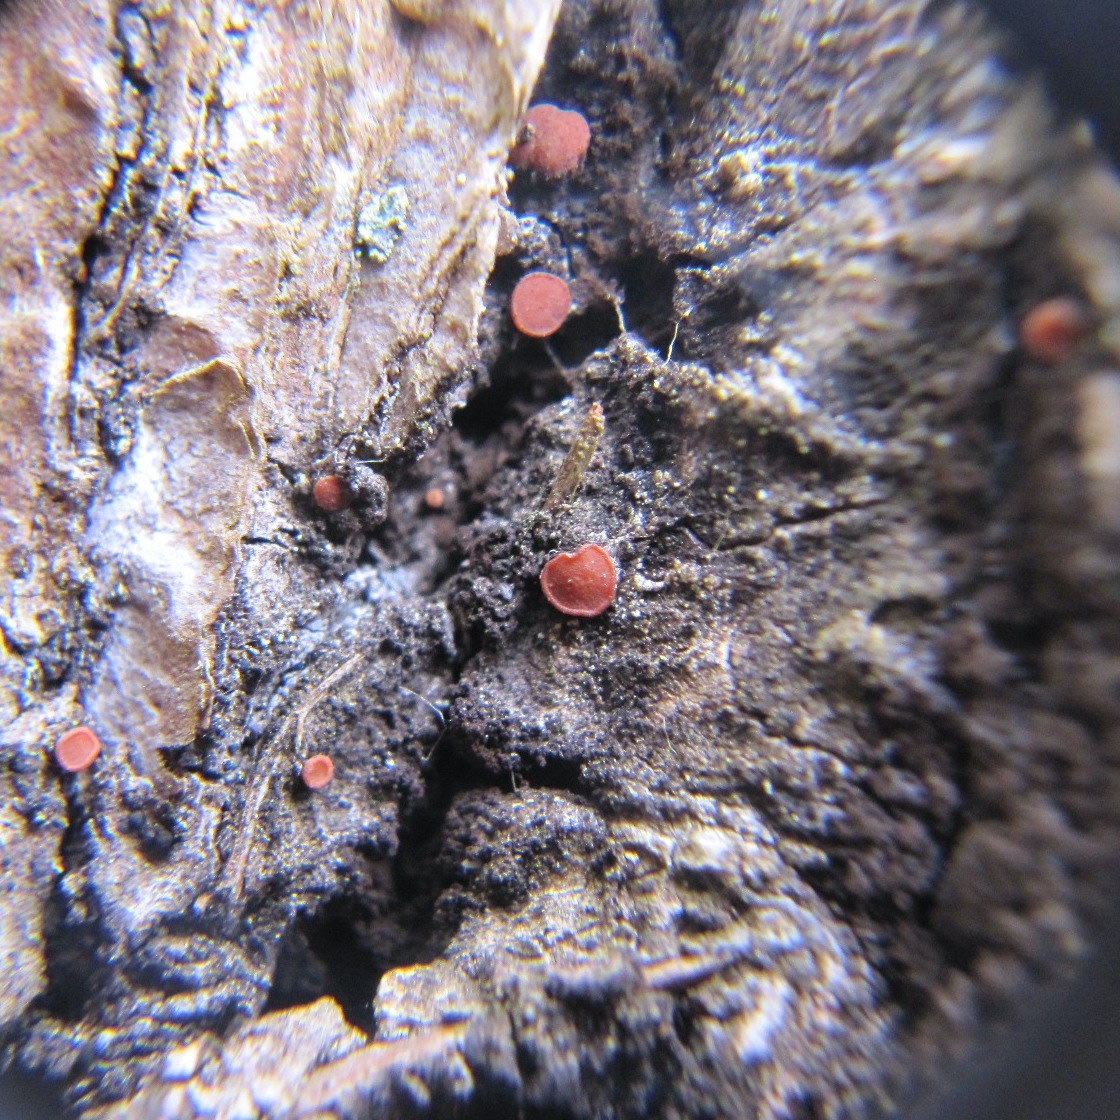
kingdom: Fungi
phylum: Ascomycota
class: Sareomycetes
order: Sareales
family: Sareaceae
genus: Sarea
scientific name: Sarea resinae
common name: orangegul harpiksskive
